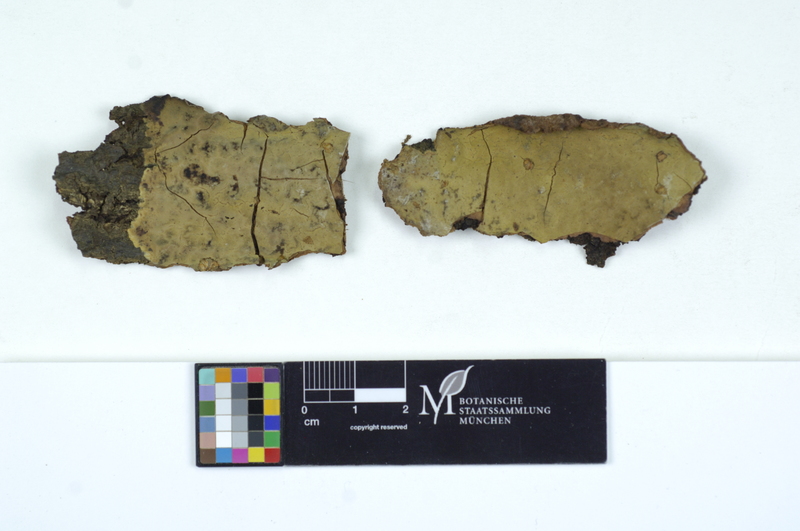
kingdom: Plantae
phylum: Tracheophyta
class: Magnoliopsida
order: Rosales
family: Rhamnaceae
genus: Frangula
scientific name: Frangula
